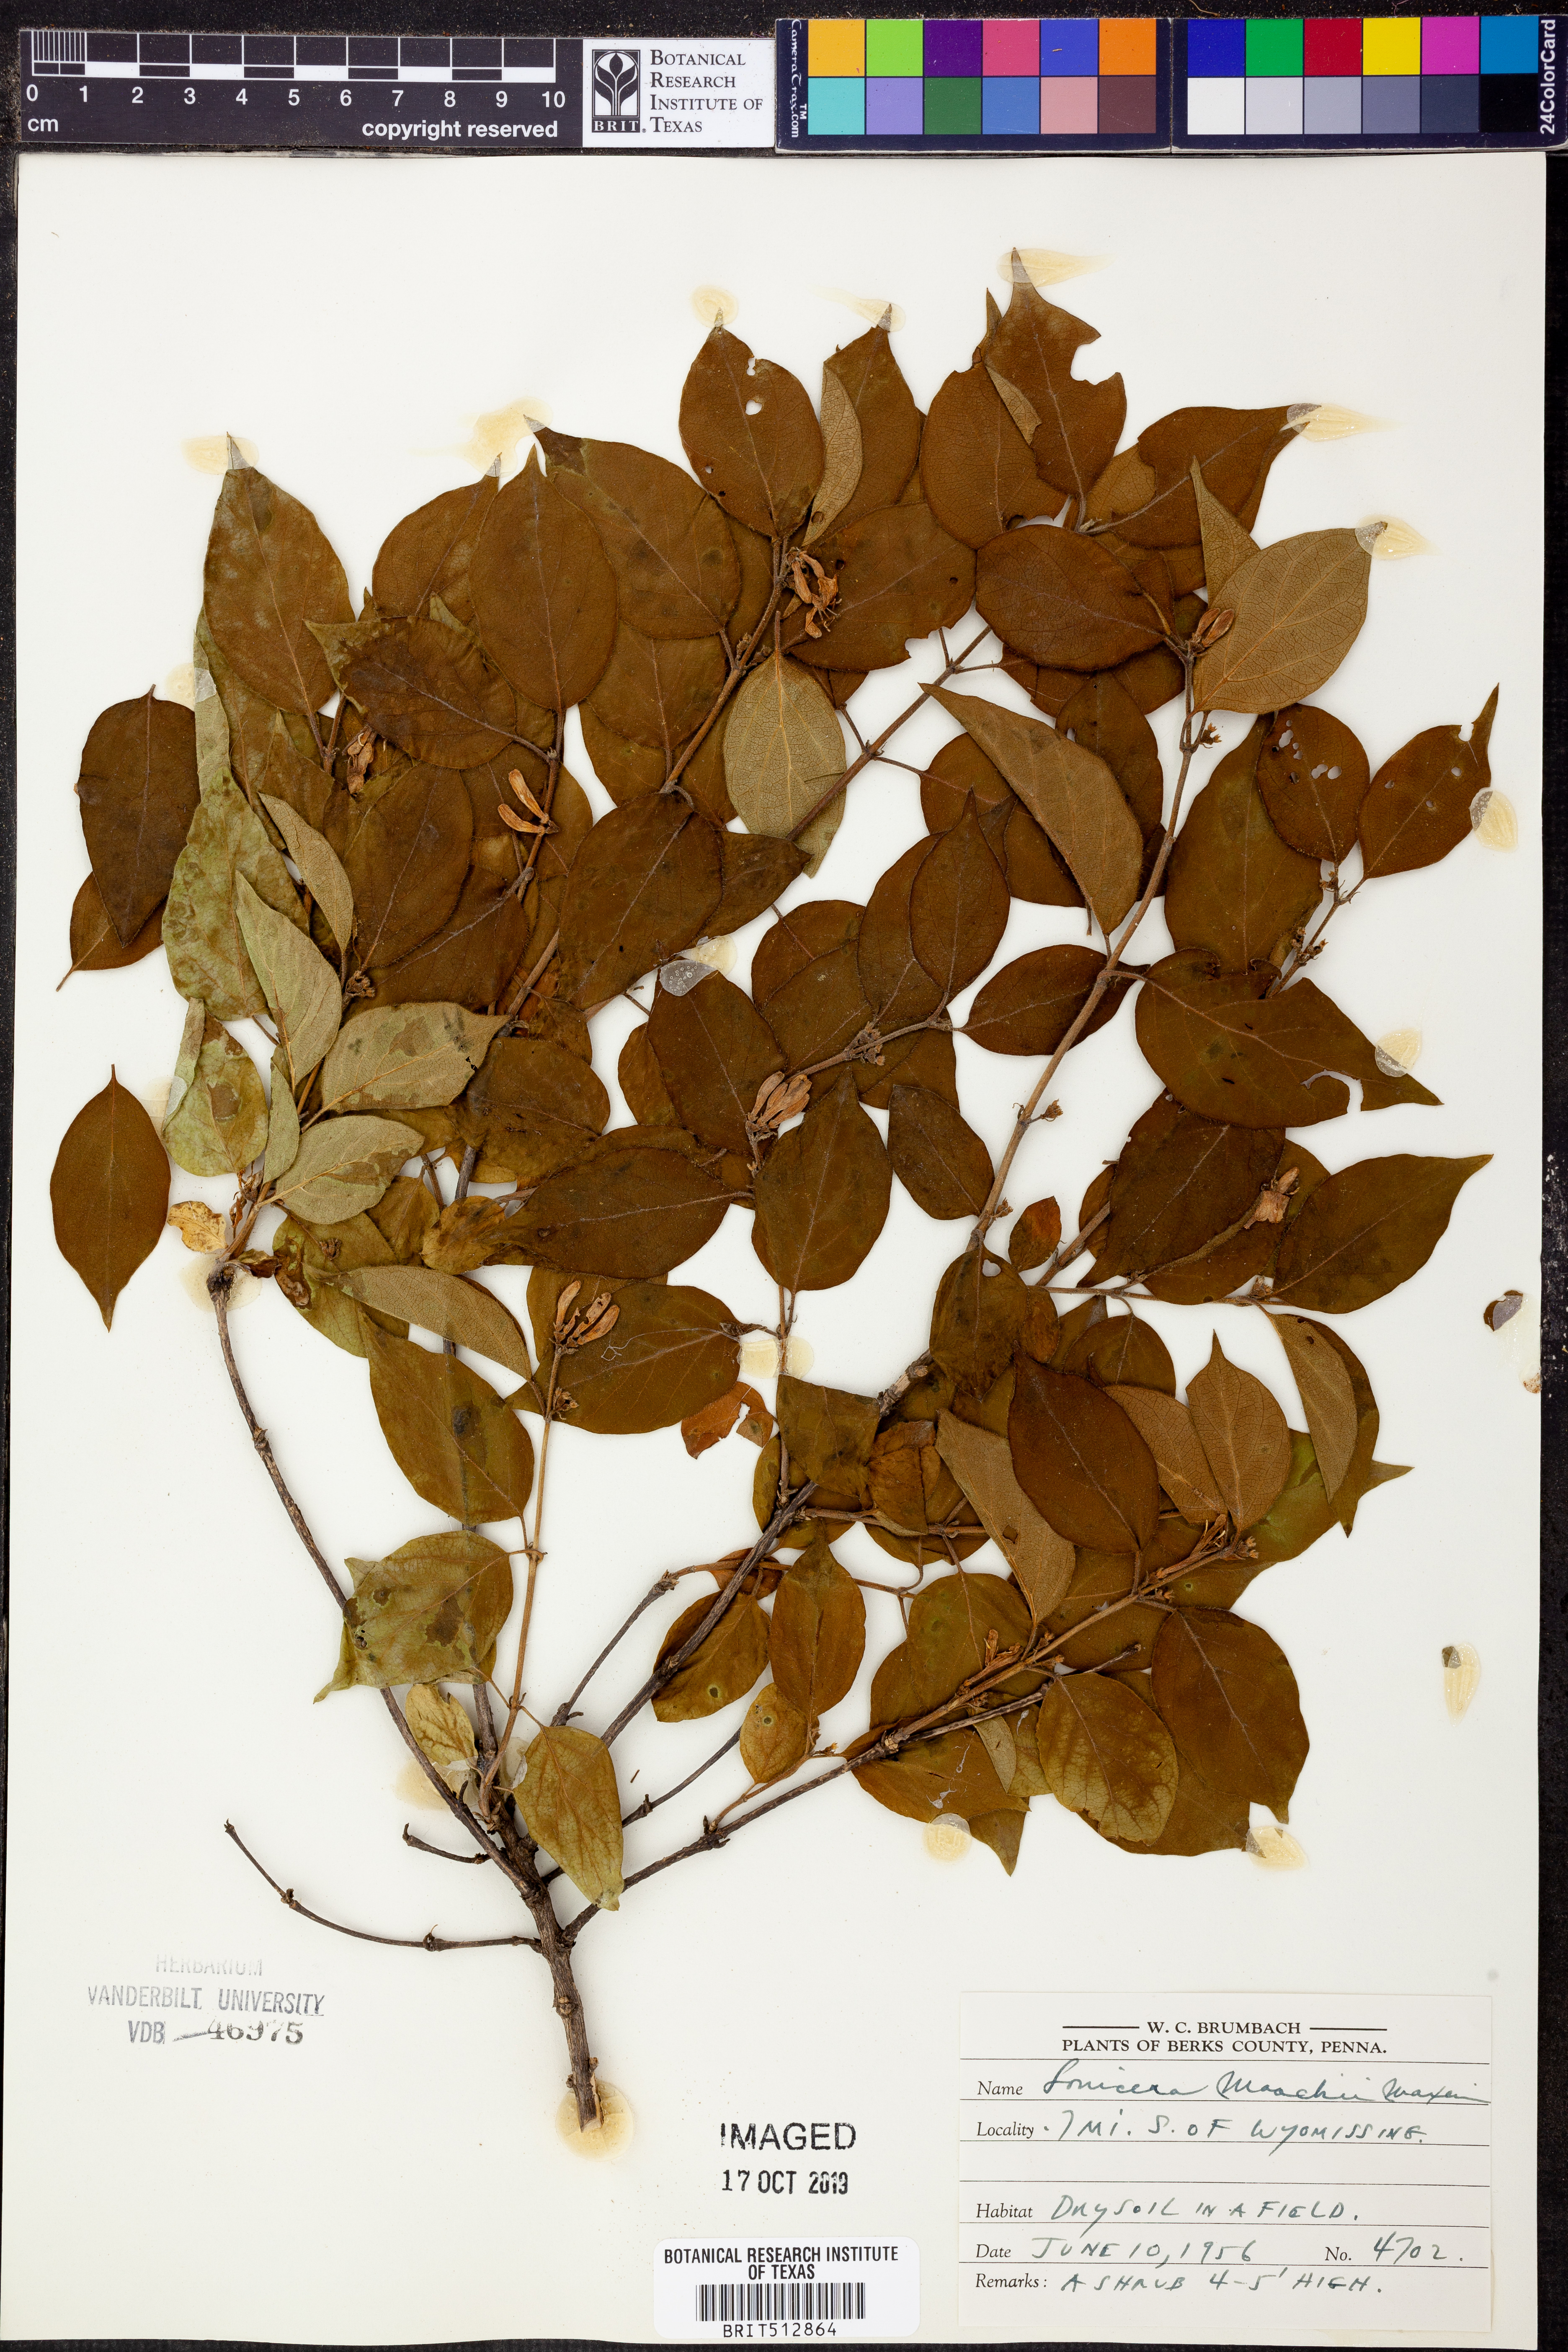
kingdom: Plantae
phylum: Tracheophyta
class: Magnoliopsida
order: Dipsacales
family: Caprifoliaceae
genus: Lonicera
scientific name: Lonicera maackii
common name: Amur honeysuckle
